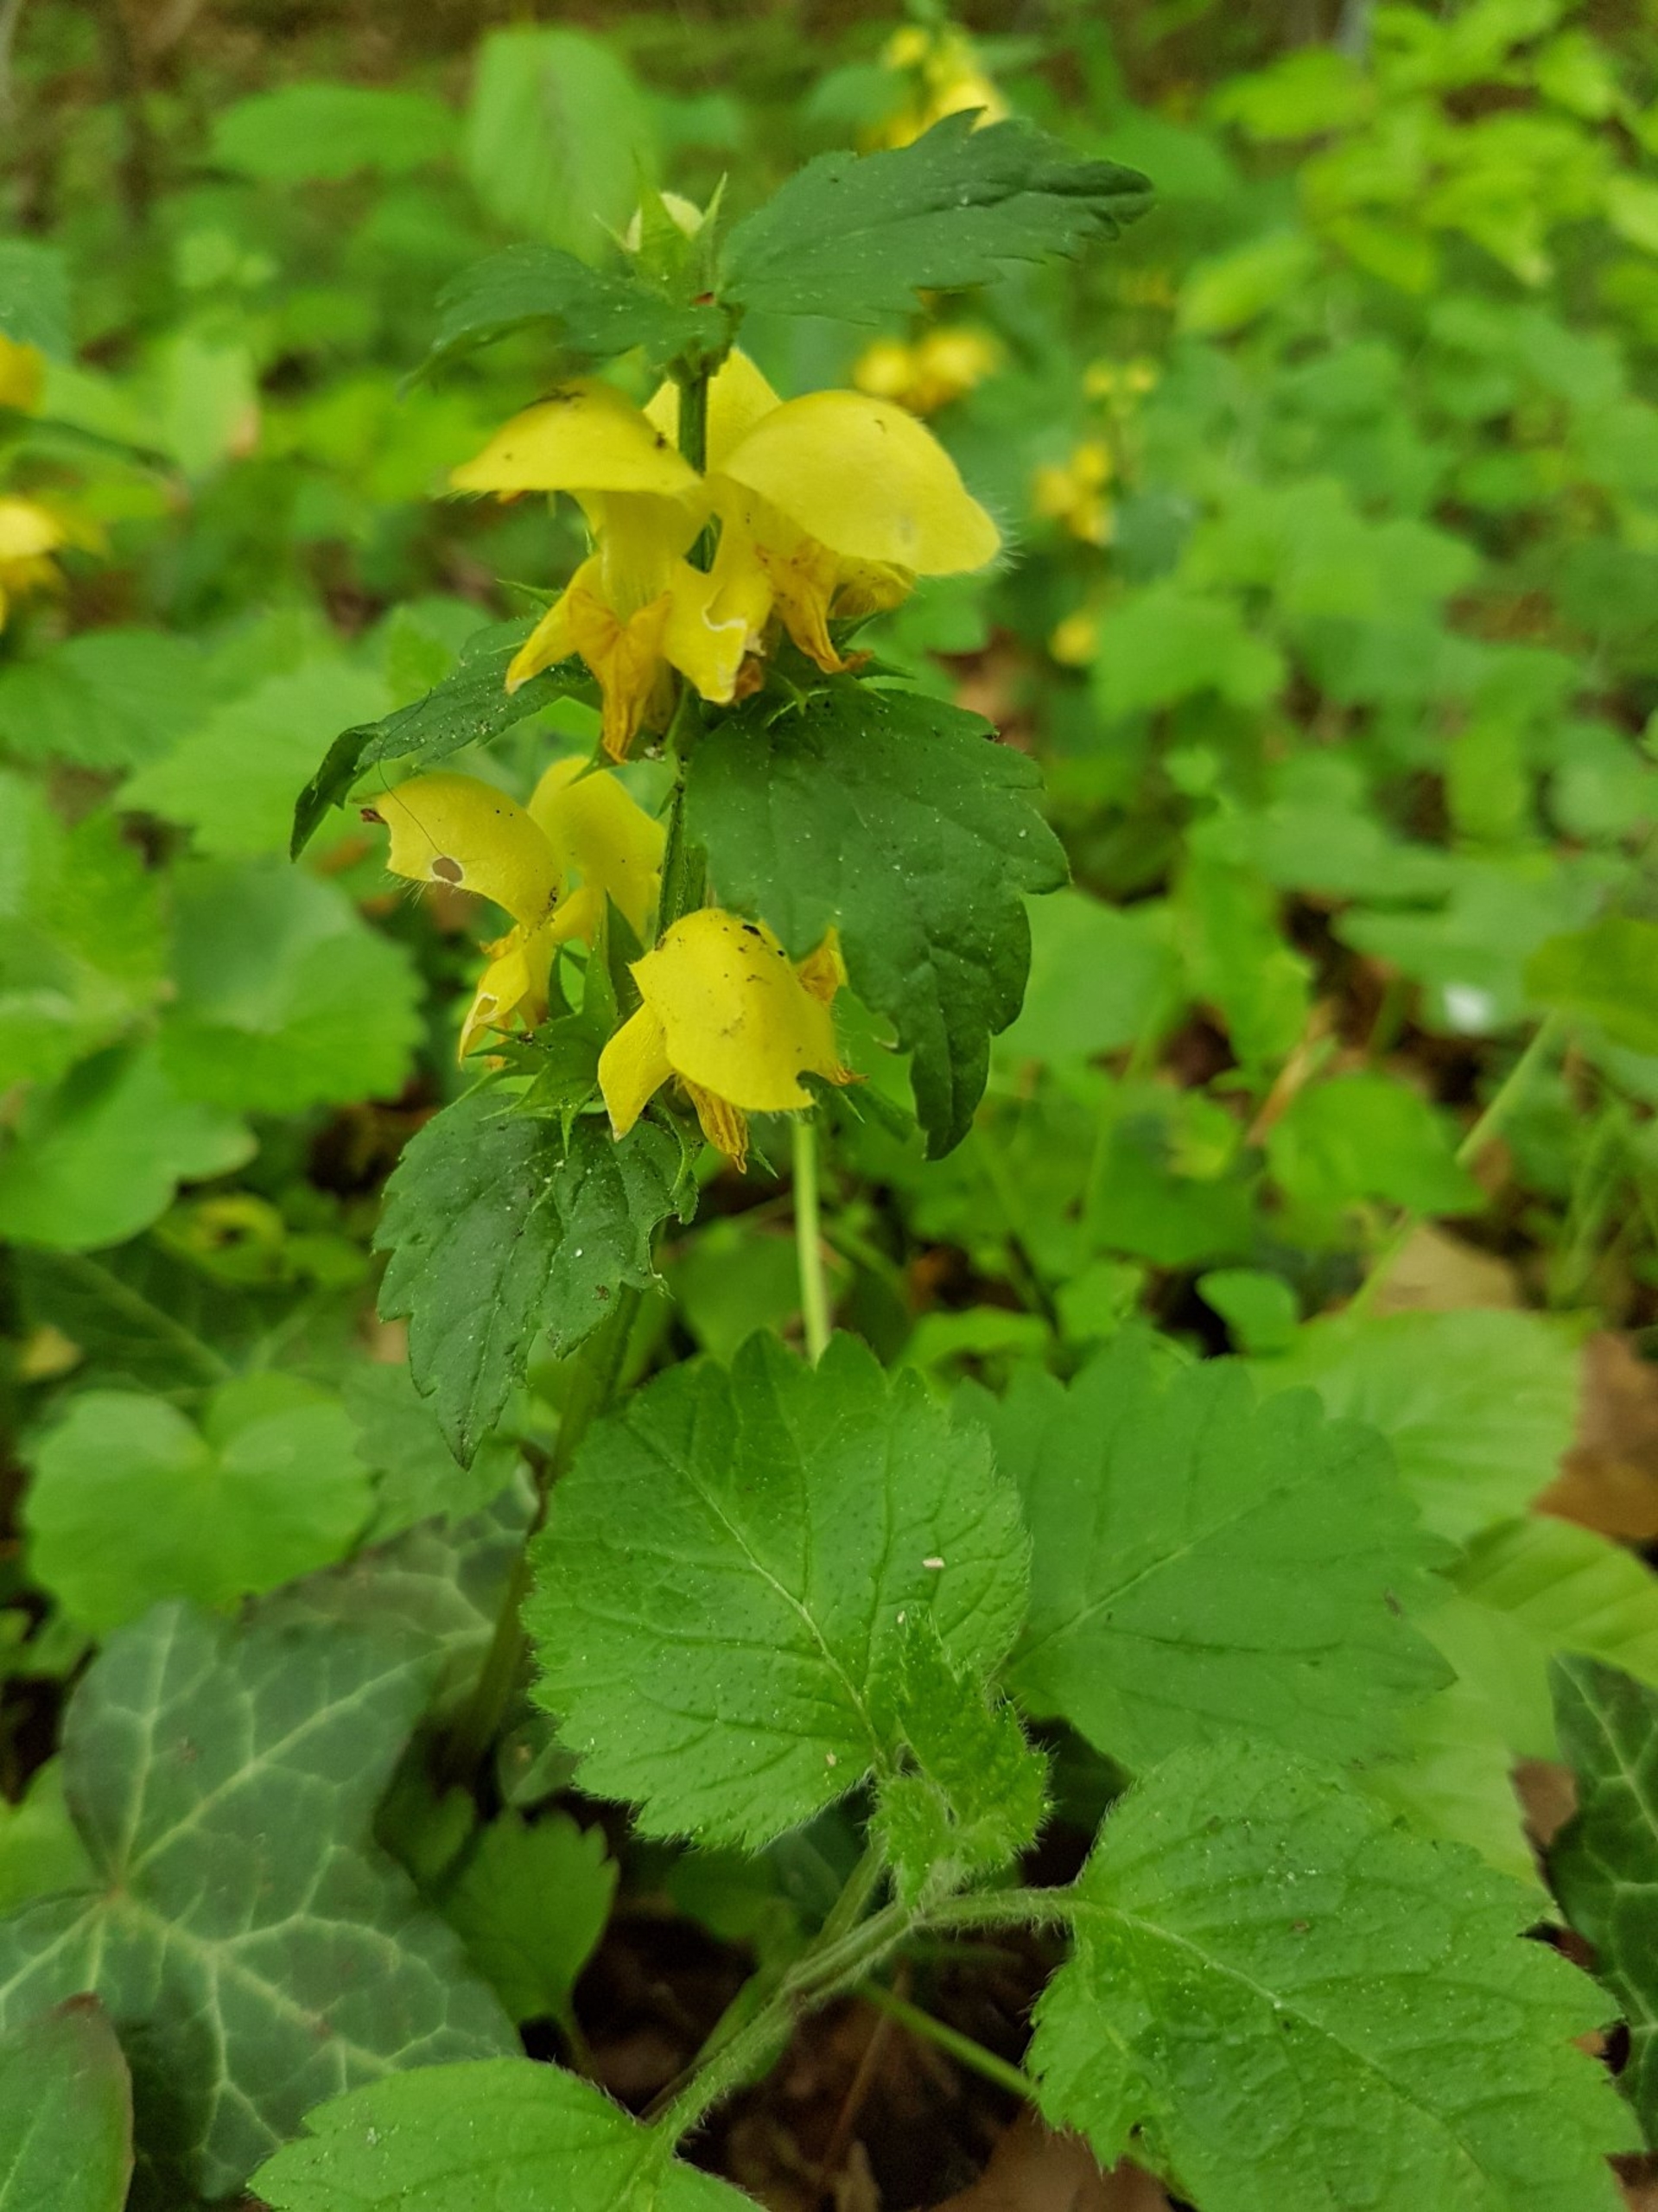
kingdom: Plantae
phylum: Tracheophyta
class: Magnoliopsida
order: Lamiales
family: Lamiaceae
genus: Lamium
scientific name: Lamium galeobdolon
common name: Guldnælde
